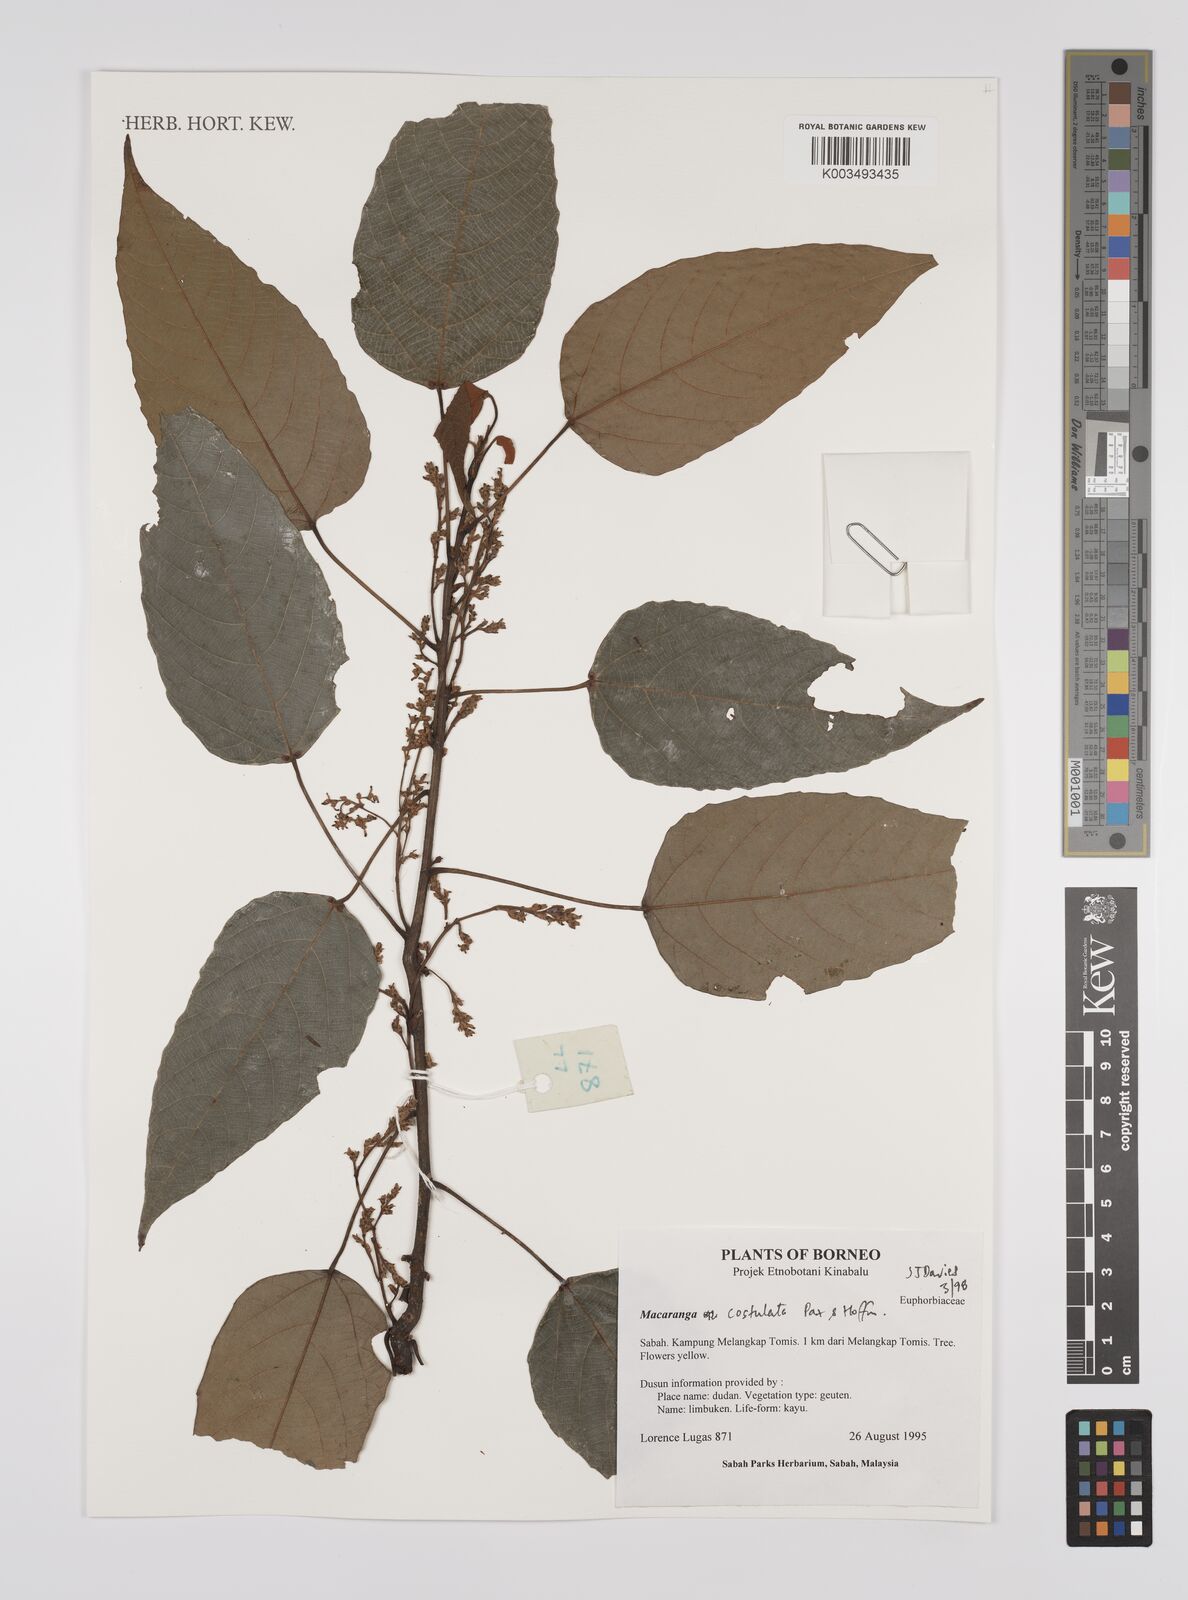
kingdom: Plantae
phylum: Tracheophyta
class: Magnoliopsida
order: Malpighiales
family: Euphorbiaceae
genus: Macaranga
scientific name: Macaranga costulata
